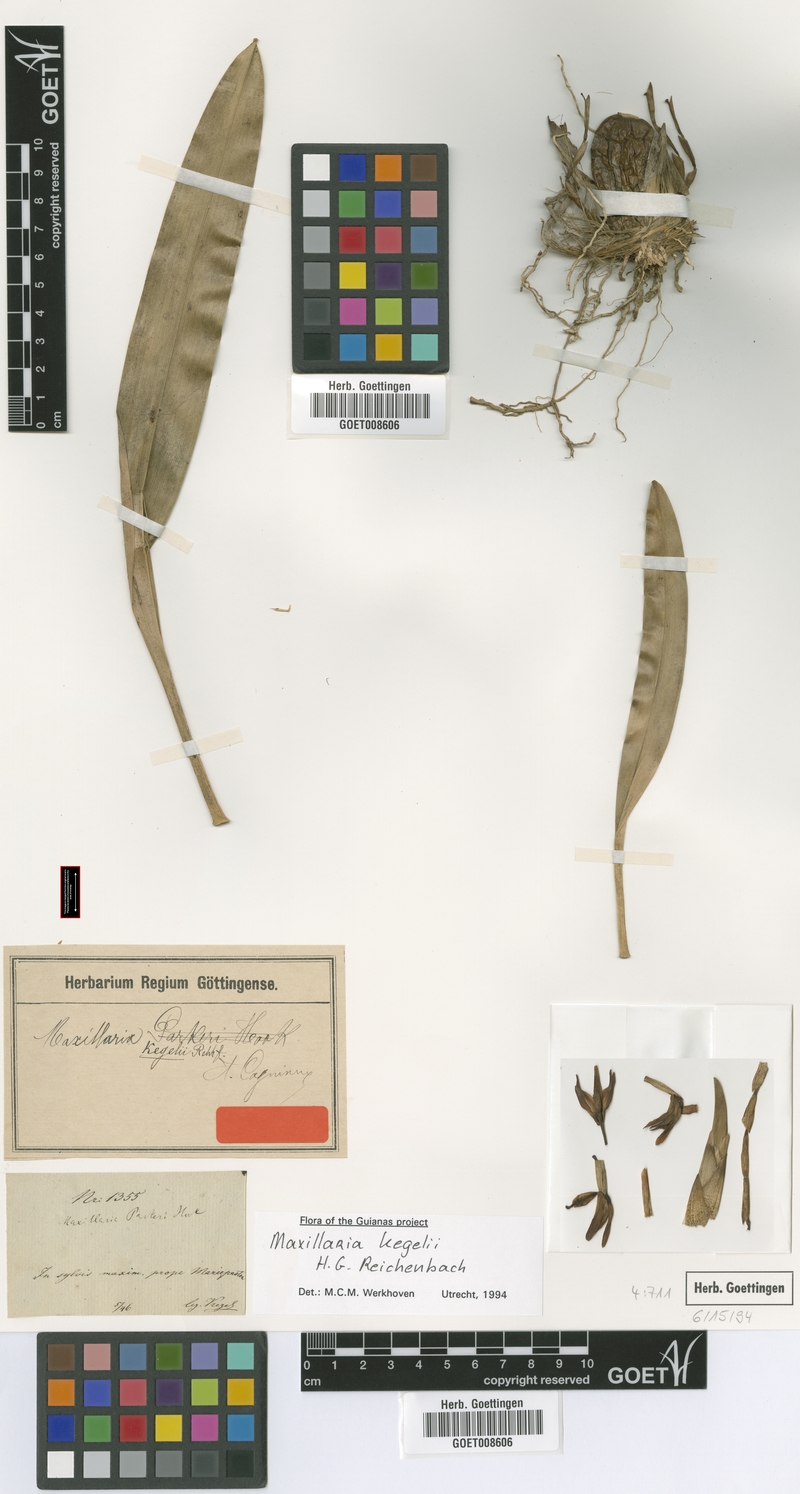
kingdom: Plantae
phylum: Tracheophyta
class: Liliopsida
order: Asparagales
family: Orchidaceae
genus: Maxillaria
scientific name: Maxillaria kegelii
